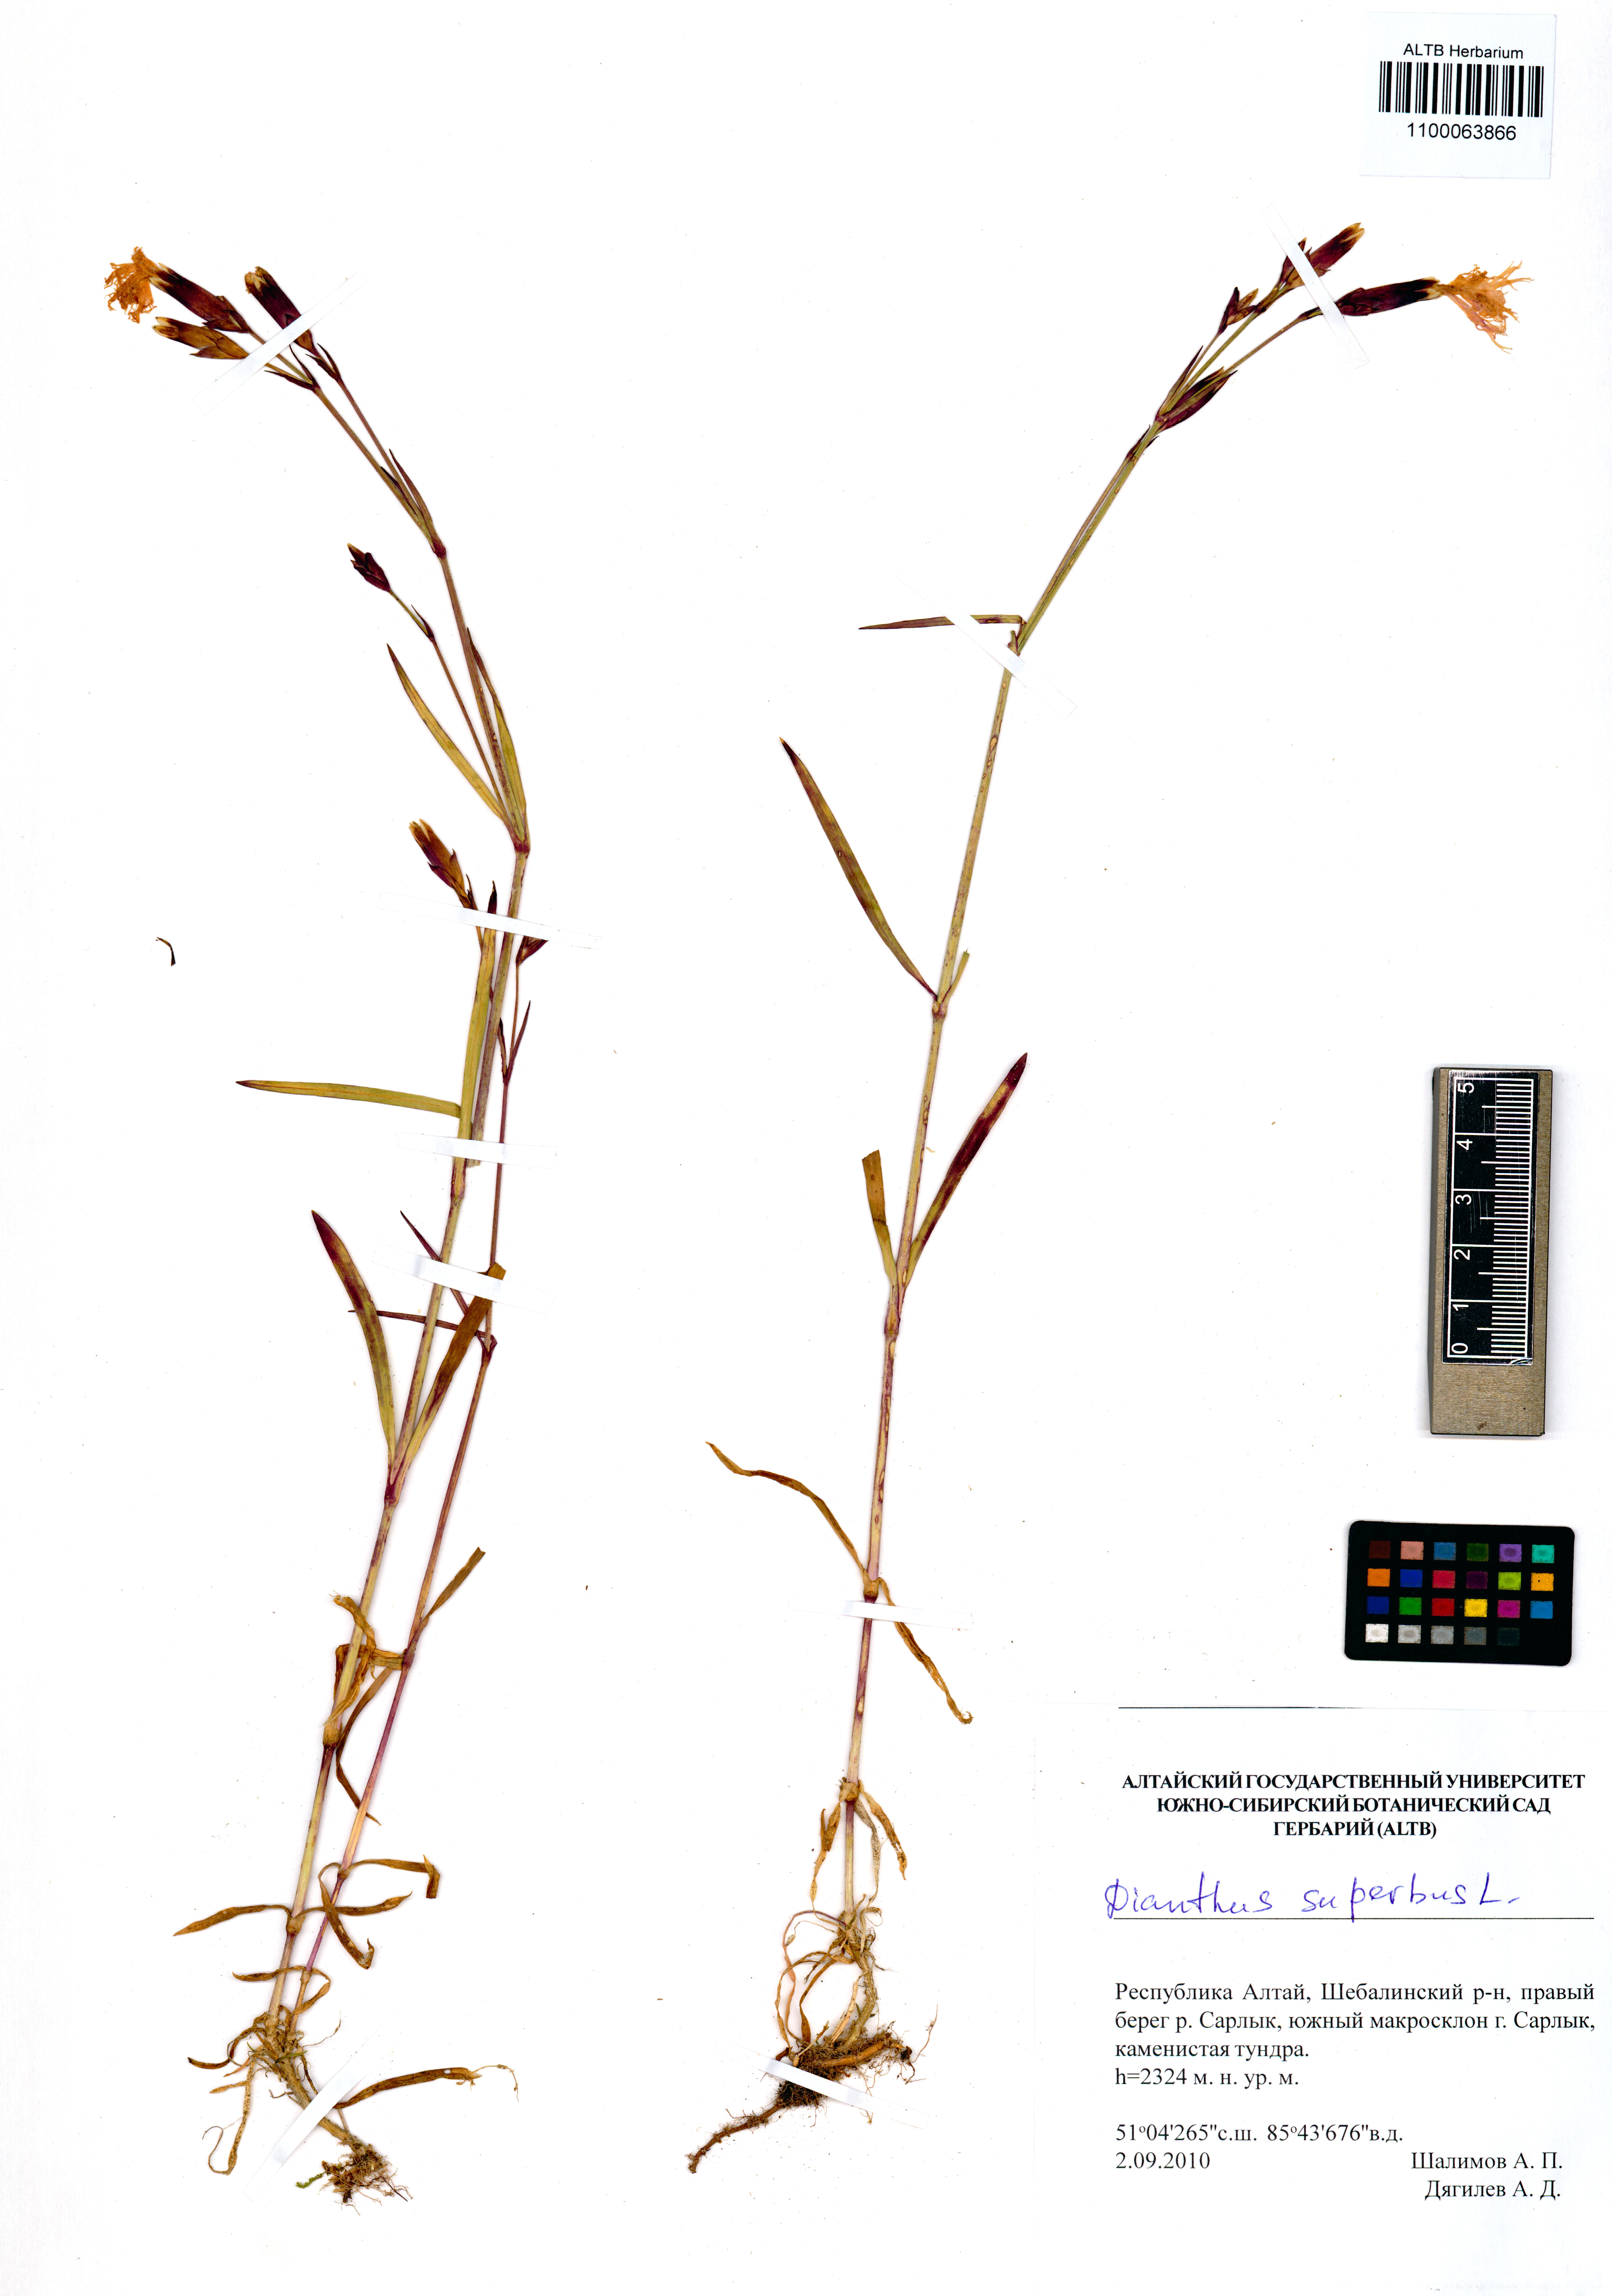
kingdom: Plantae
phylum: Tracheophyta
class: Magnoliopsida
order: Caryophyllales
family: Caryophyllaceae
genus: Dianthus
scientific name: Dianthus superbus
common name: Fringed pink
